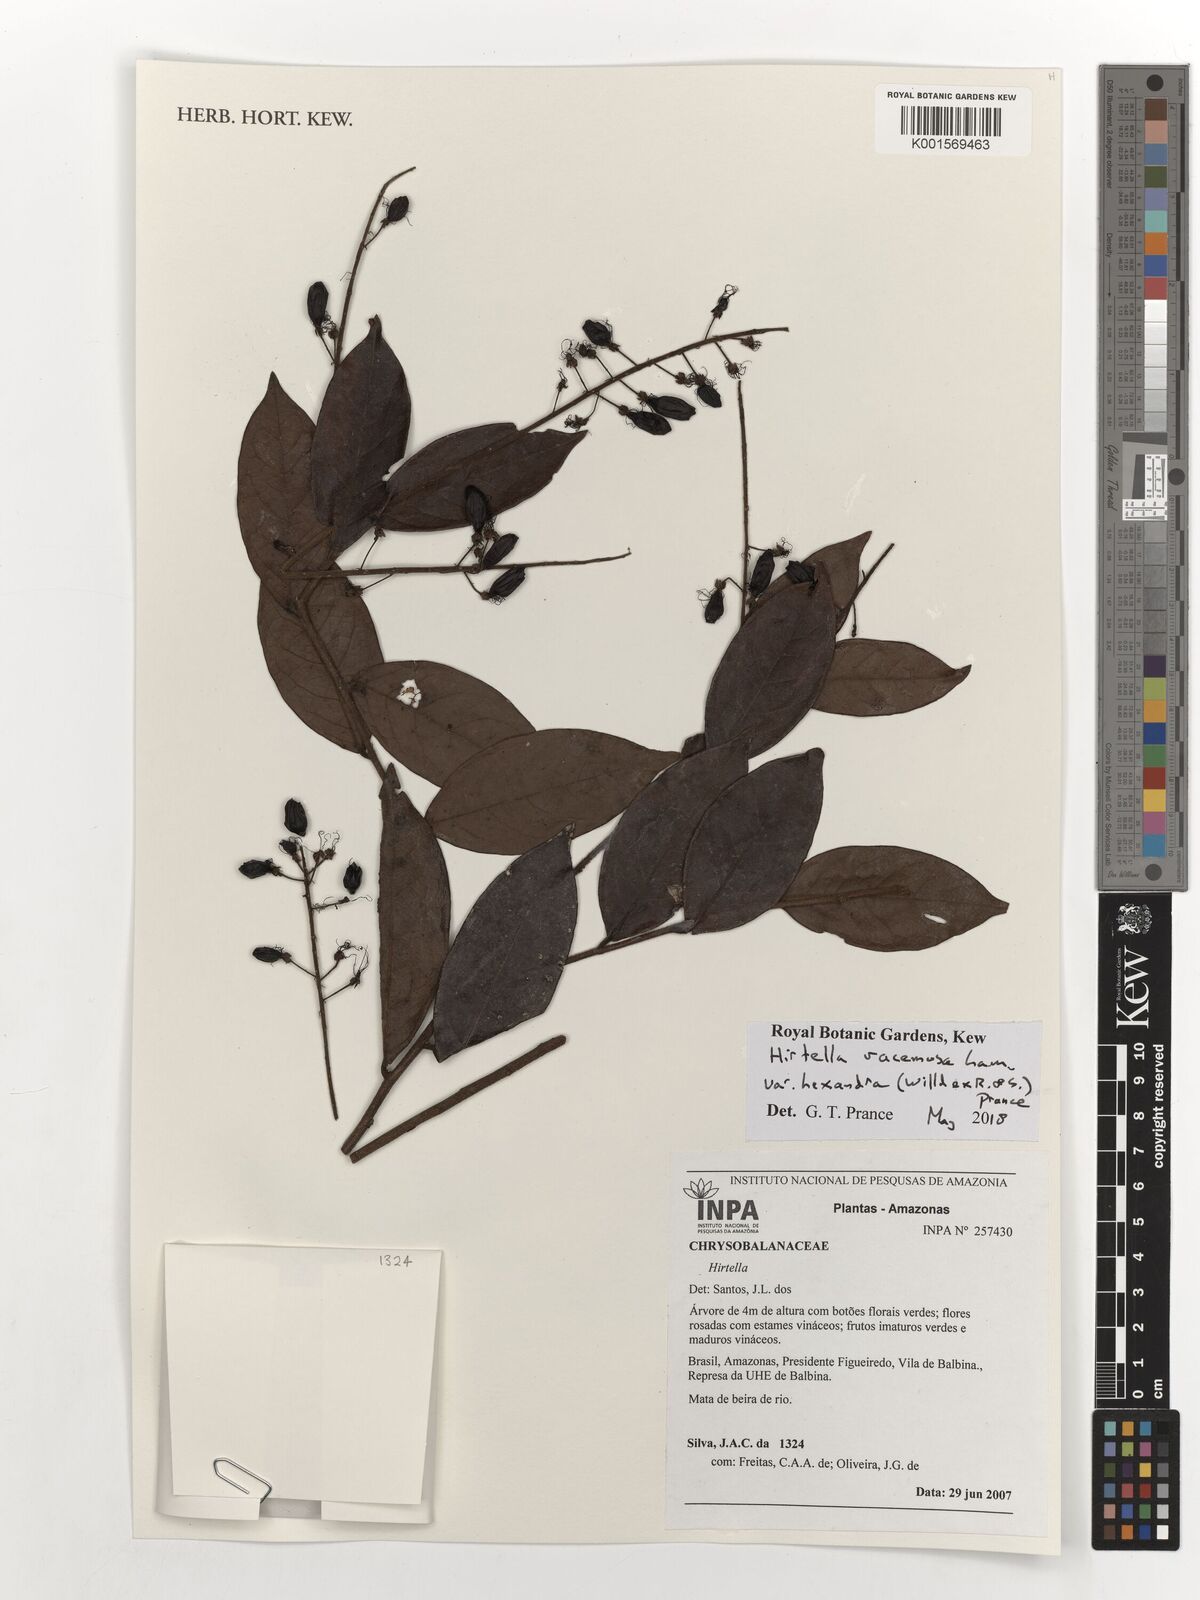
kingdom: Plantae
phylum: Tracheophyta
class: Magnoliopsida
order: Malpighiales
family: Chrysobalanaceae
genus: Hirtella
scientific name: Hirtella racemosa
